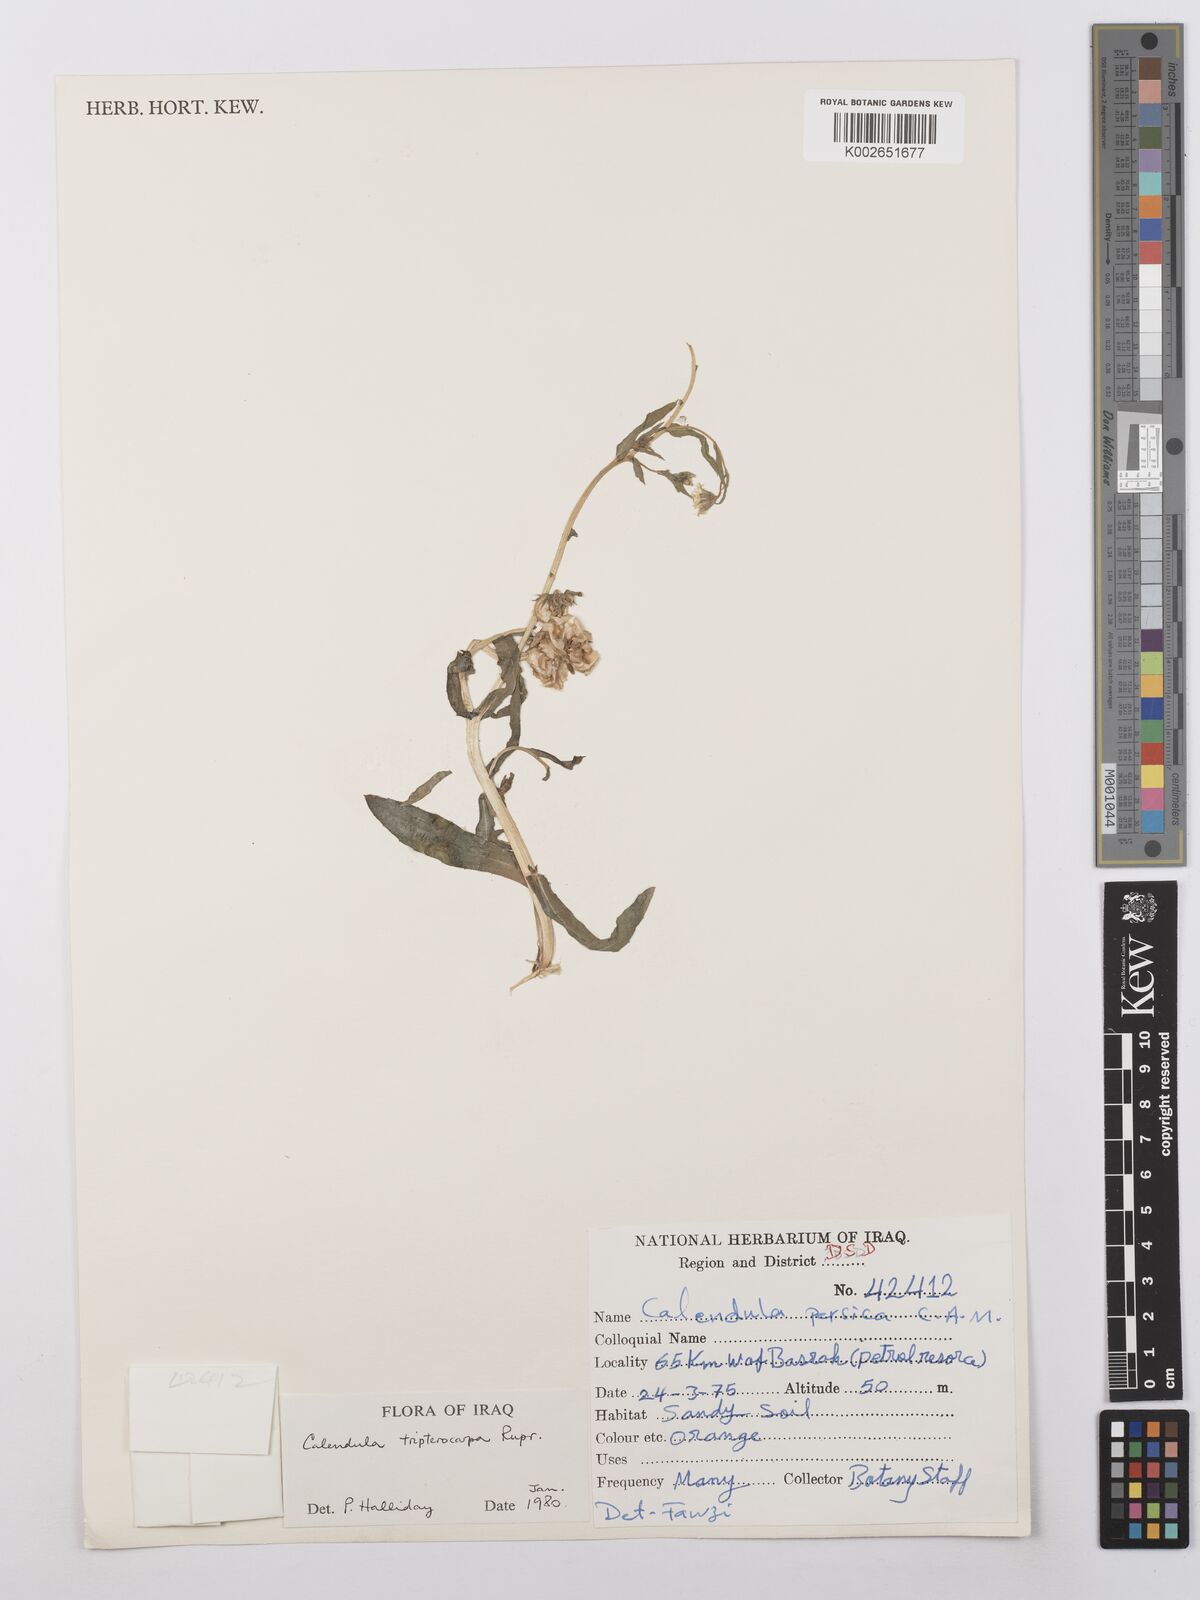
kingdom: Plantae
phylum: Tracheophyta
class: Magnoliopsida
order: Asterales
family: Asteraceae
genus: Calendula
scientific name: Calendula tripterocarpa
